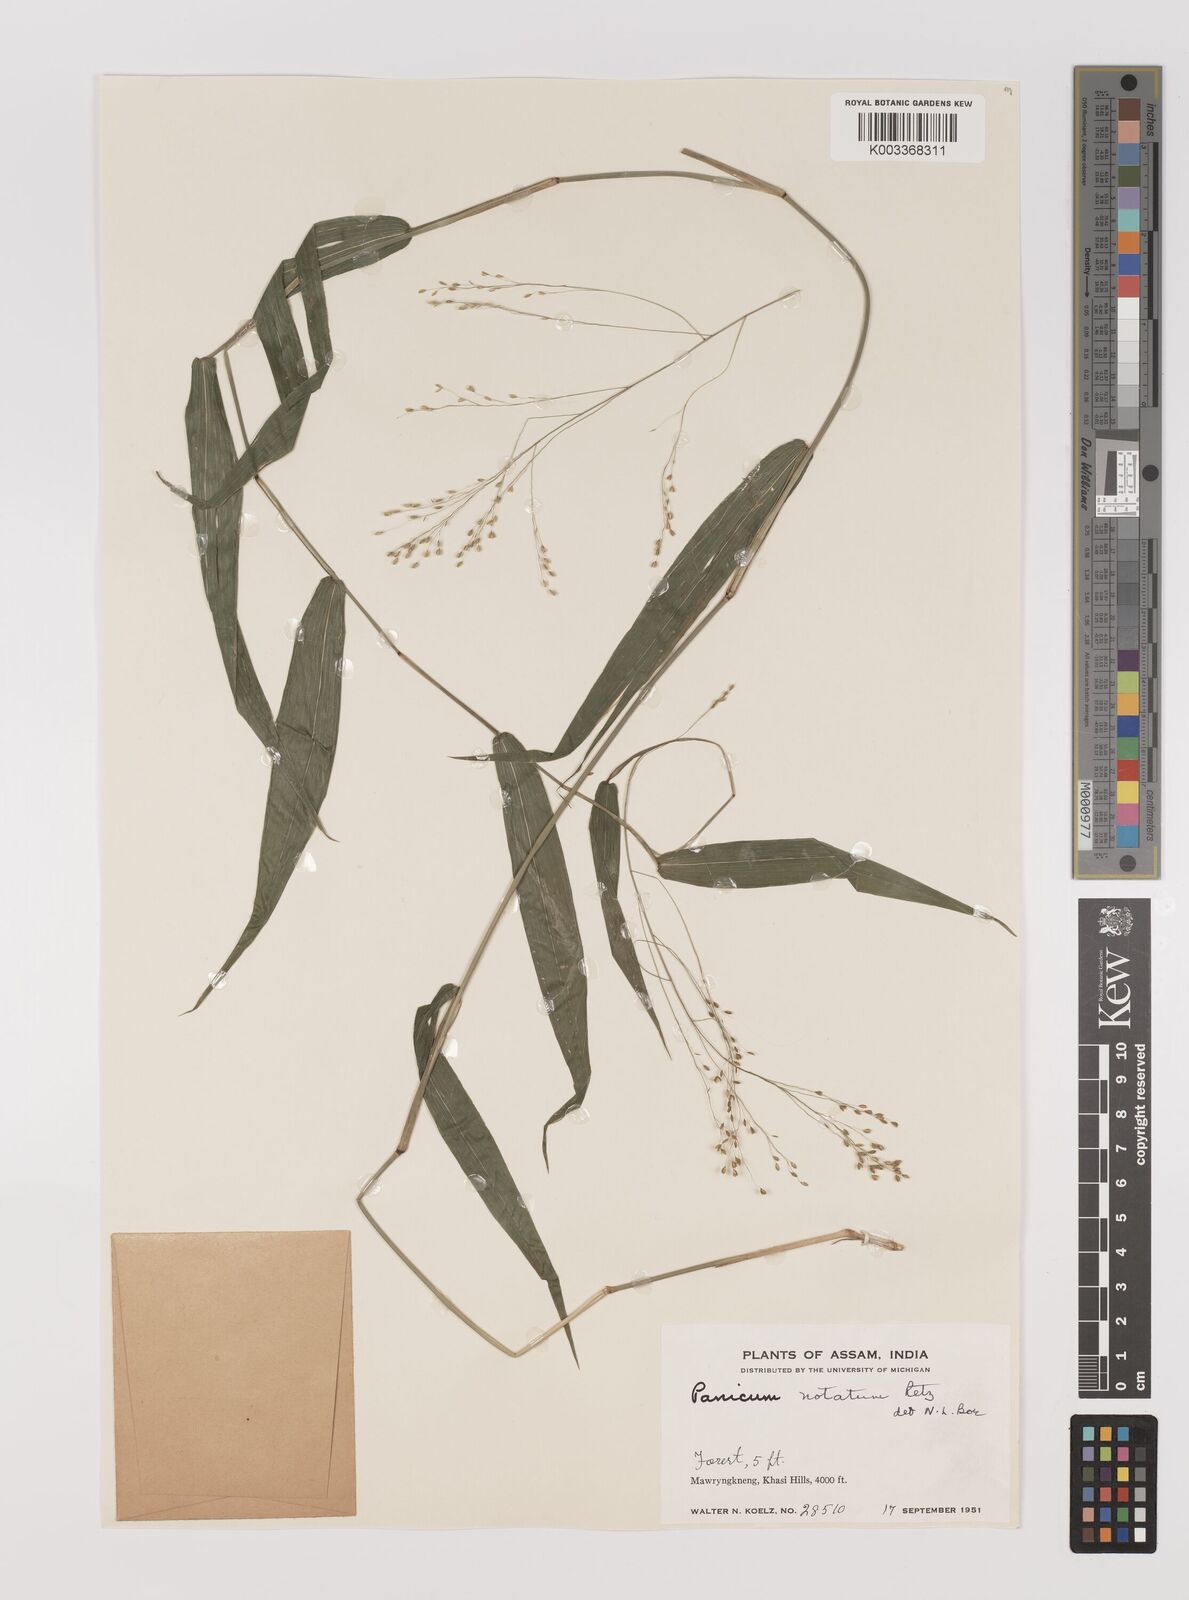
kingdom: Plantae
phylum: Tracheophyta
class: Liliopsida
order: Poales
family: Poaceae
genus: Panicum
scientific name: Panicum notatum
